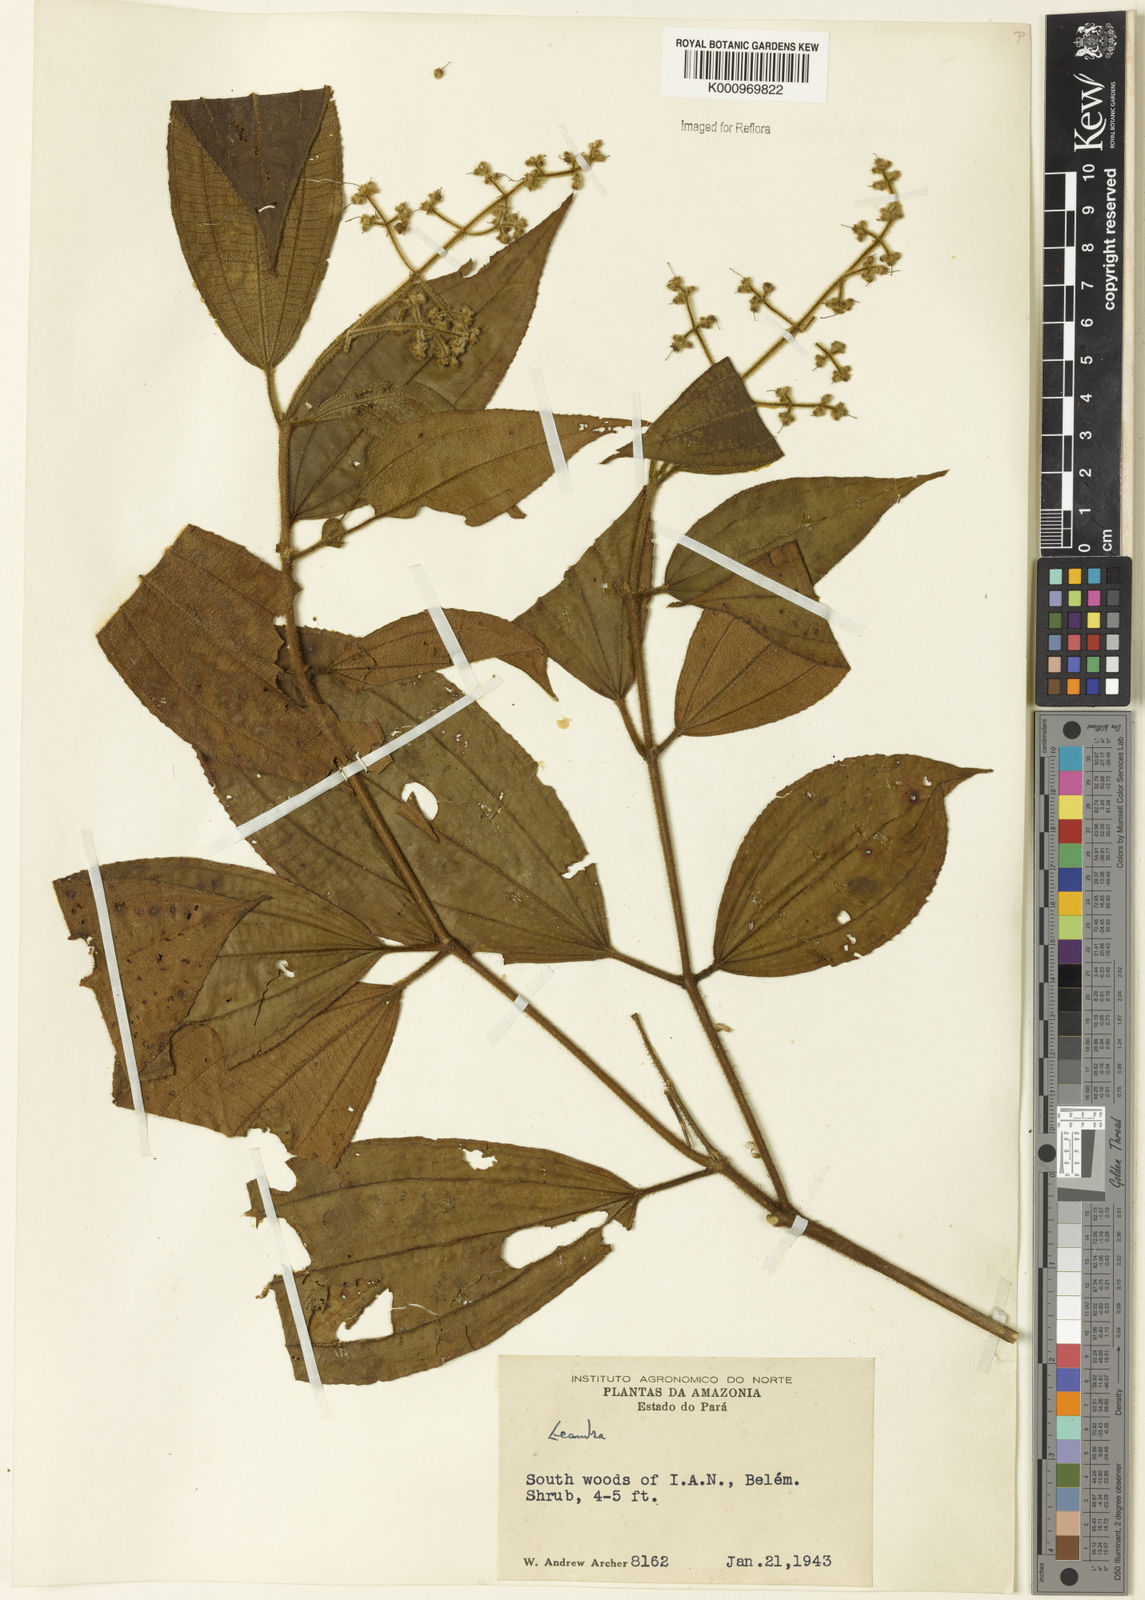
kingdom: Plantae
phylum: Tracheophyta
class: Magnoliopsida
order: Myrtales
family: Melastomataceae
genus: Miconia
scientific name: Miconia
